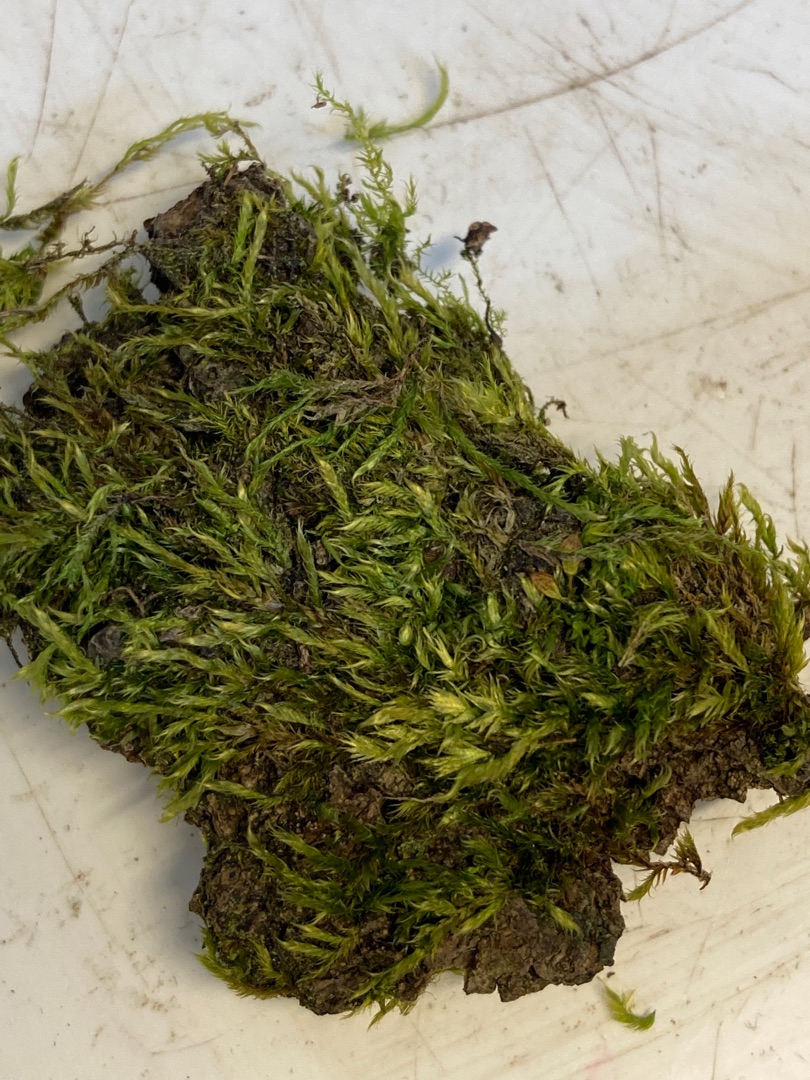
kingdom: Plantae
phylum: Bryophyta
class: Bryopsida
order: Hypnales
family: Hypnaceae
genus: Hypnum
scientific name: Hypnum
